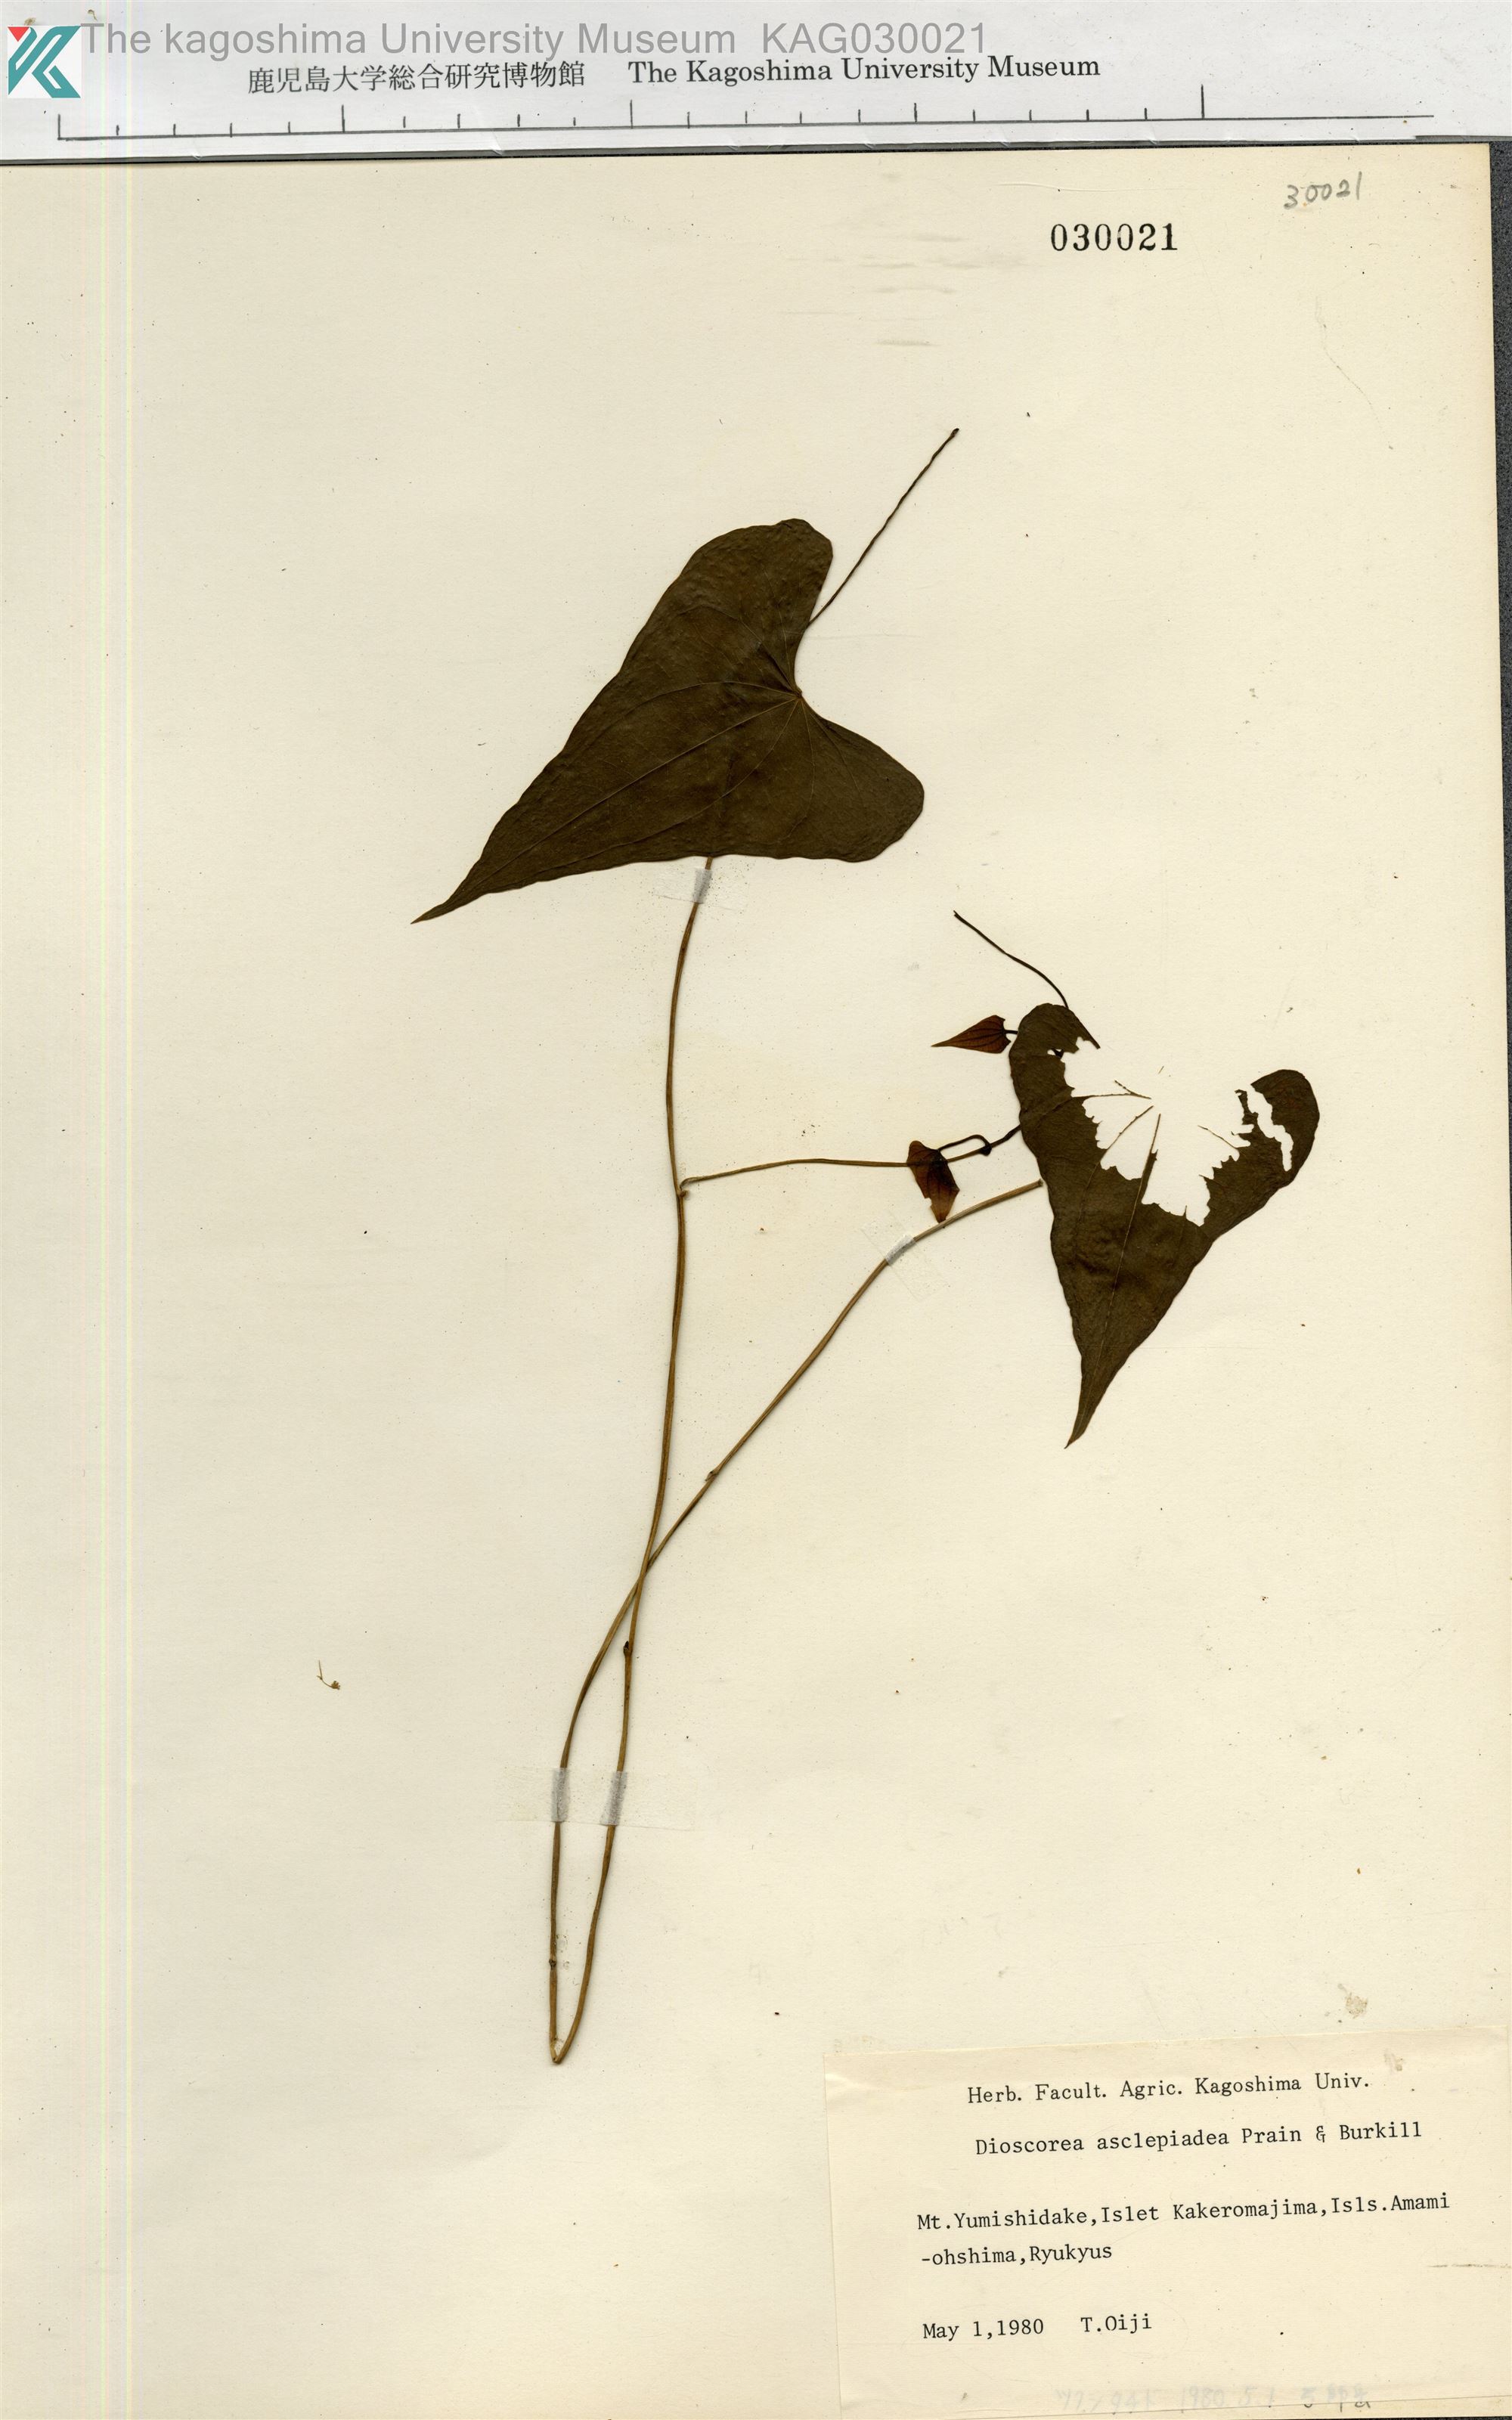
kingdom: Plantae
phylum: Tracheophyta
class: Liliopsida
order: Dioscoreales
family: Dioscoreaceae
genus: Dioscorea
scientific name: Dioscorea zentaroana
